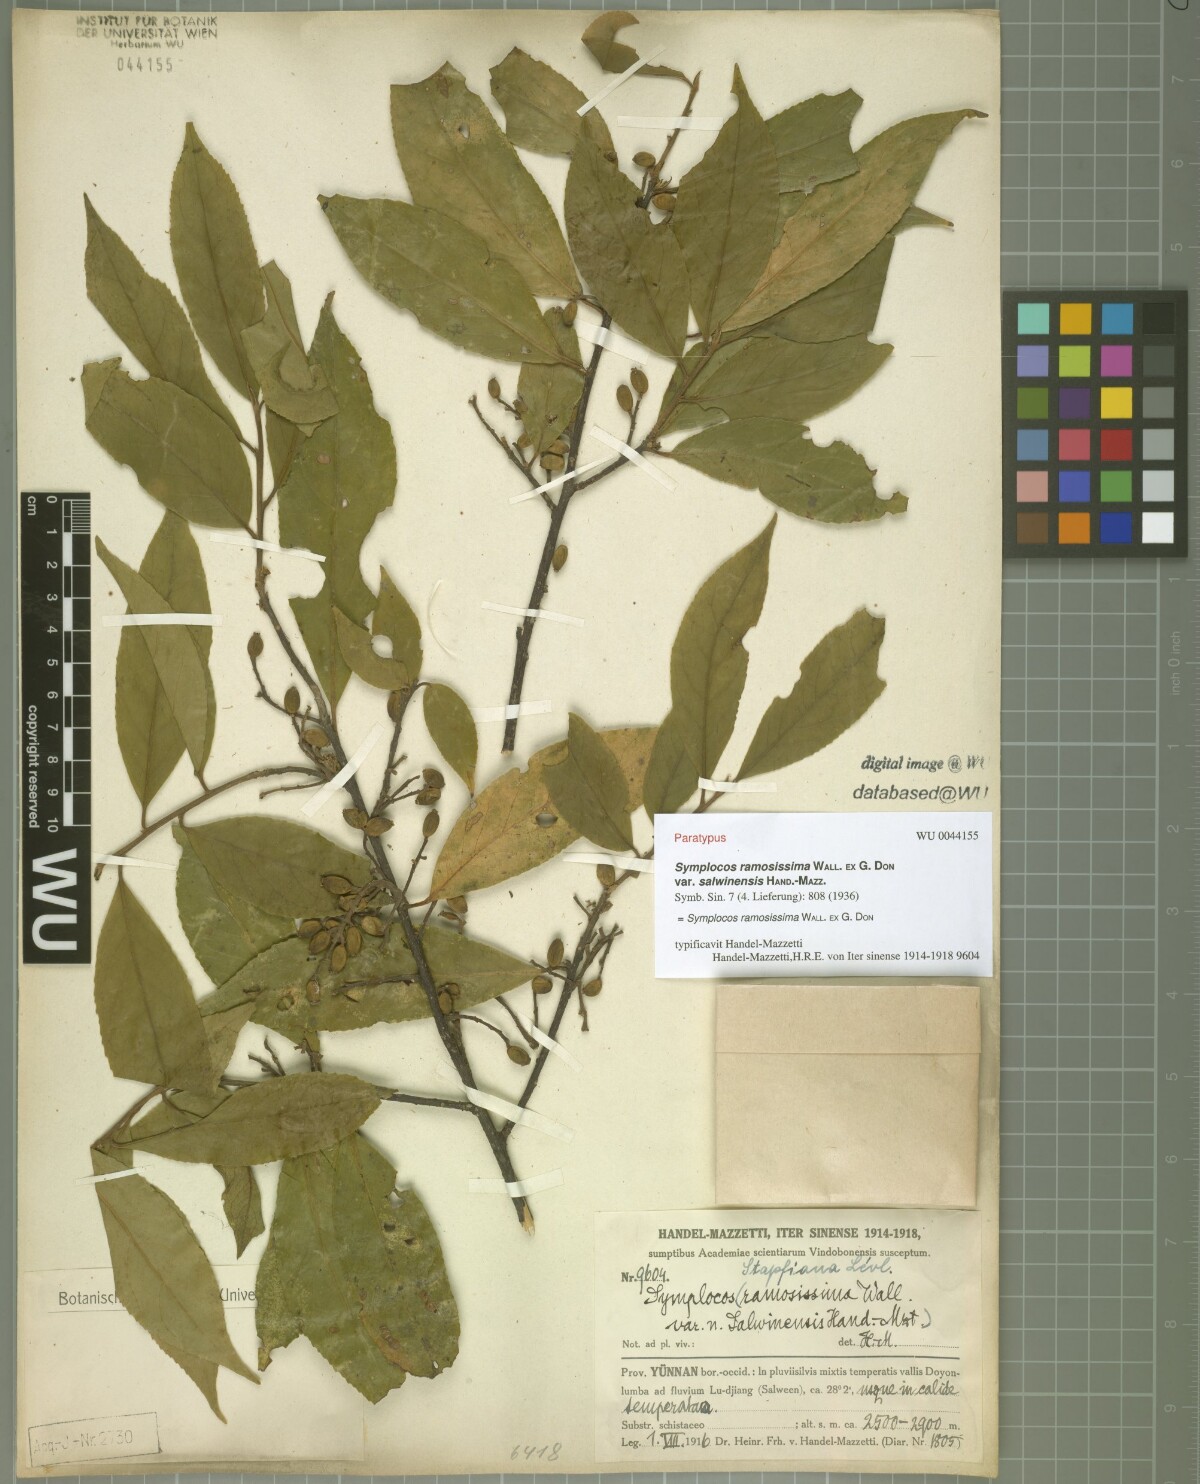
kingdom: Plantae
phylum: Tracheophyta
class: Magnoliopsida
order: Ericales
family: Symplocaceae
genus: Symplocos
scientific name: Symplocos ramosissima
